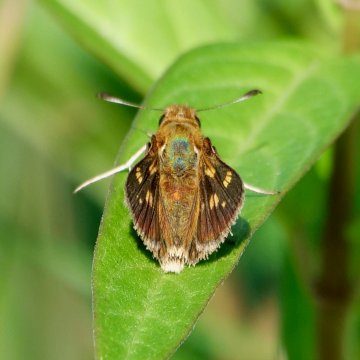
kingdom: Animalia
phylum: Arthropoda
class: Insecta
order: Lepidoptera
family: Hesperiidae
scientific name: Hesperiidae
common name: Skippers
